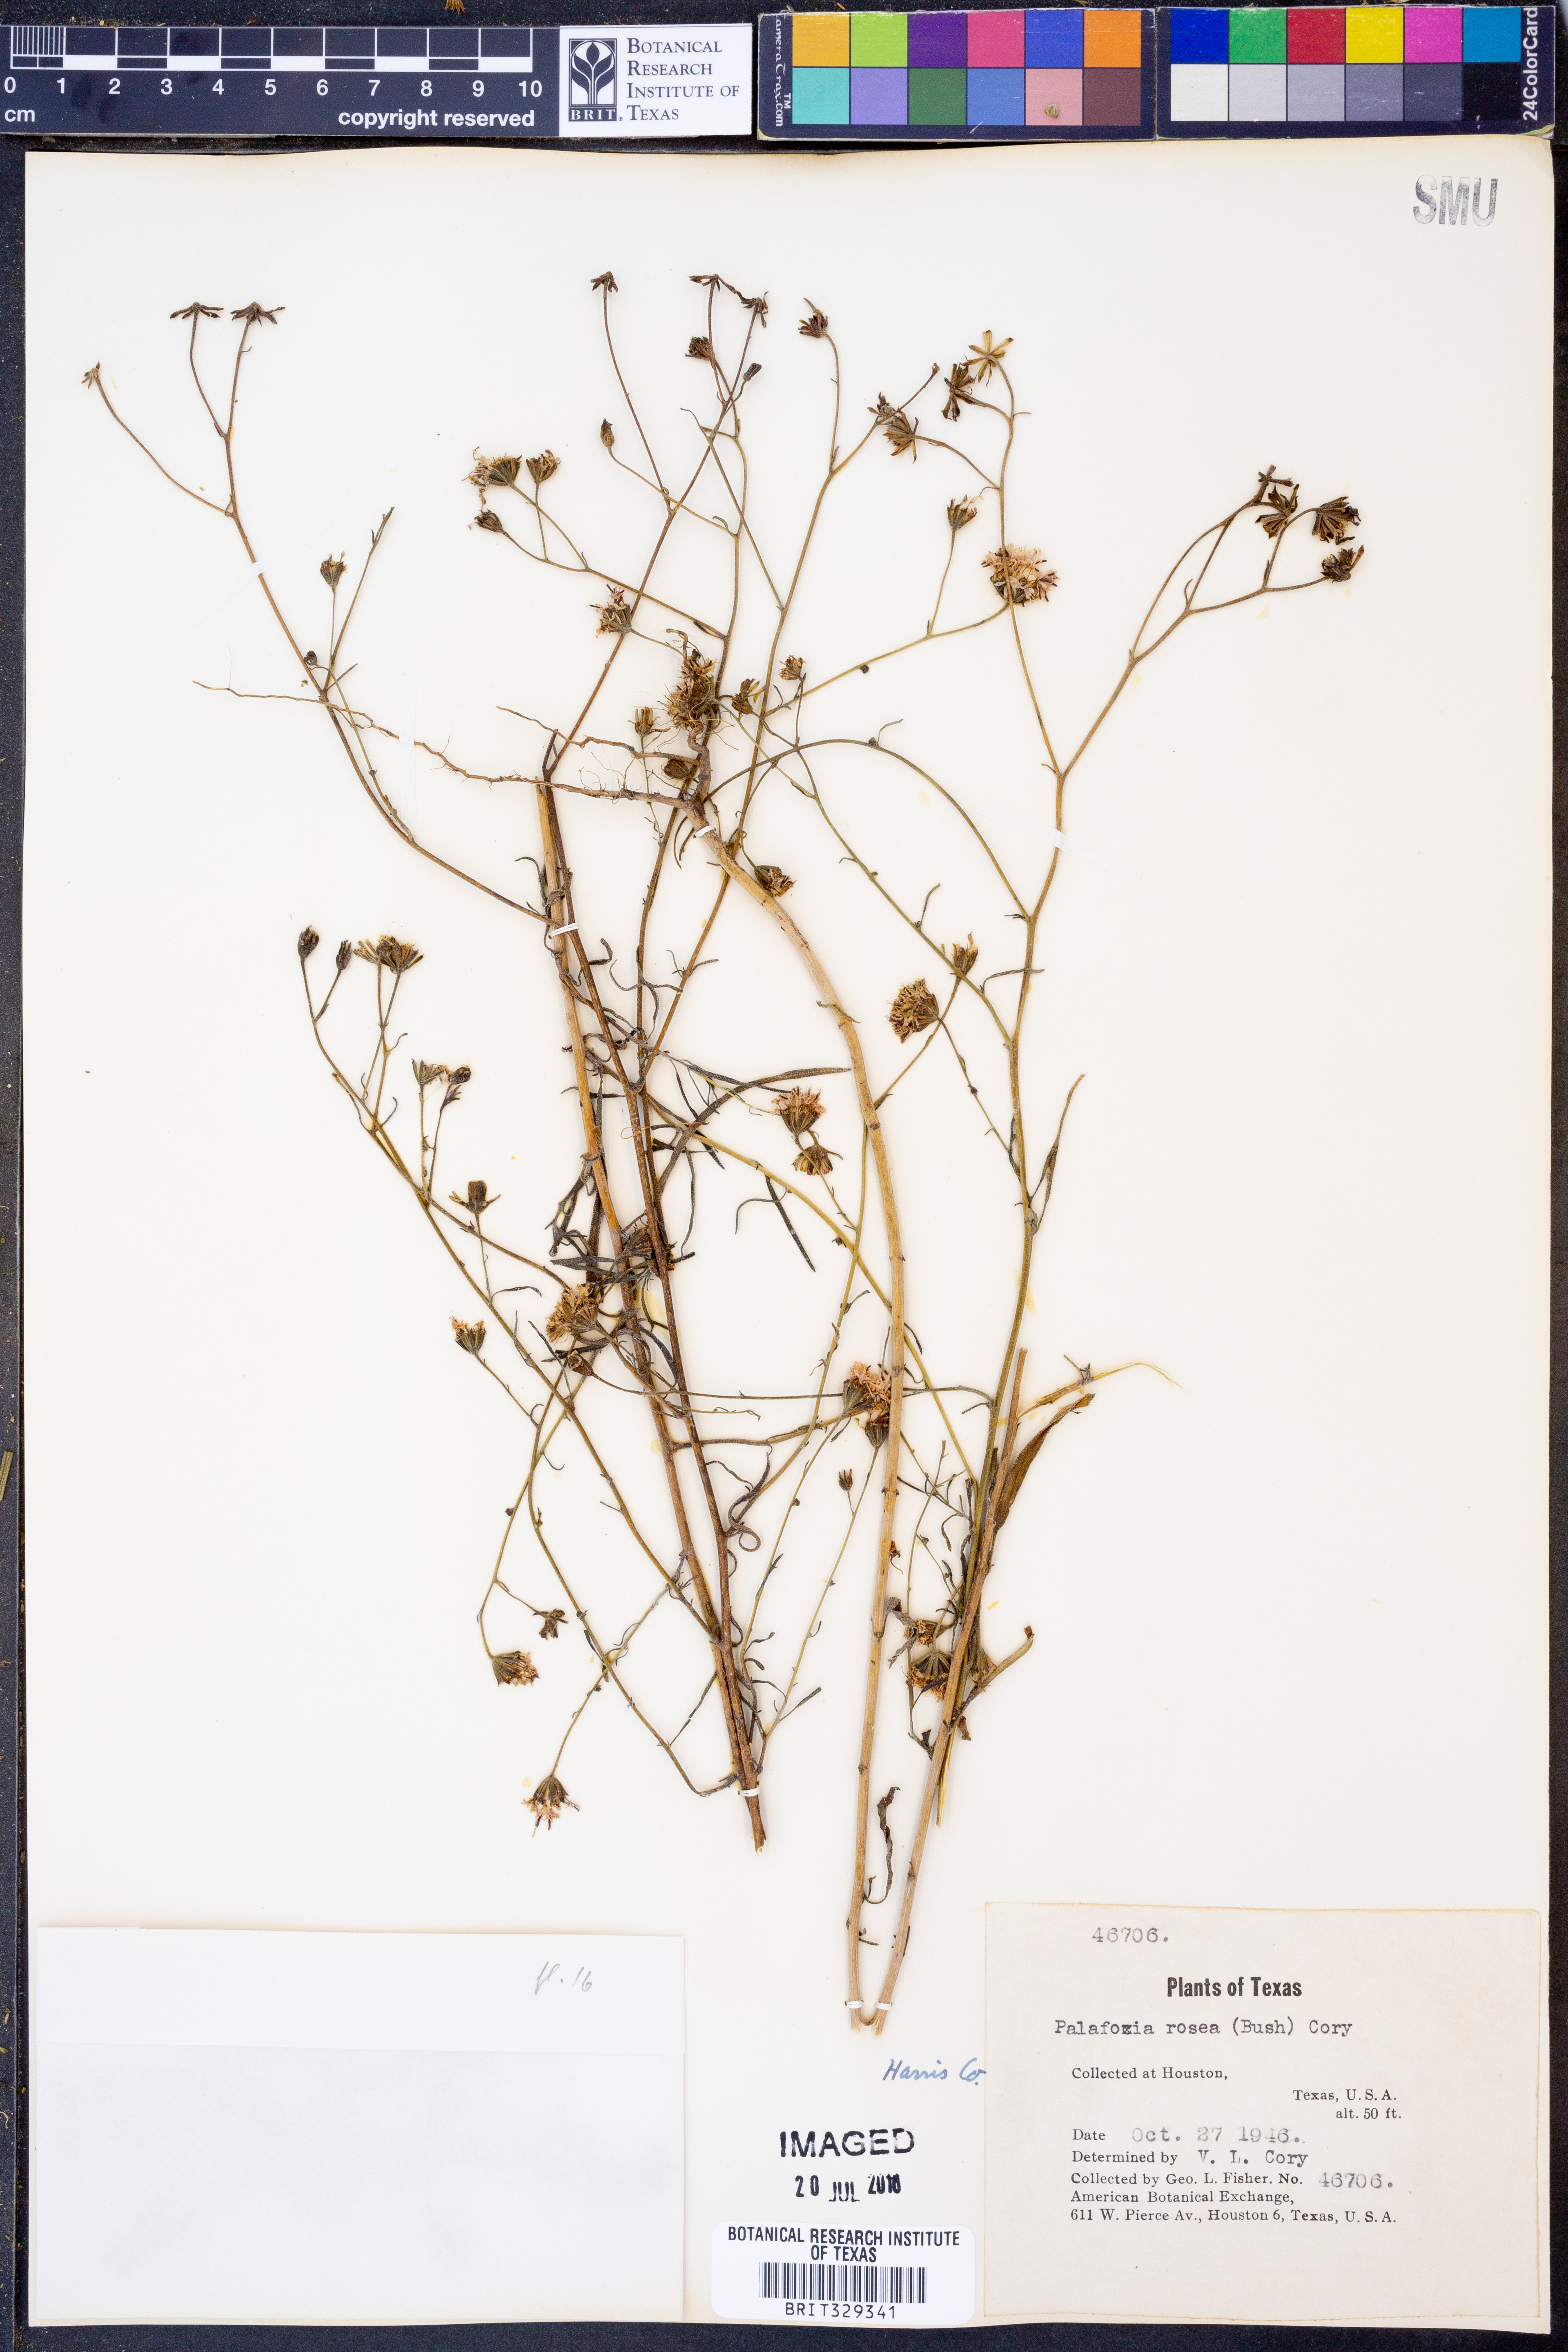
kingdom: Plantae
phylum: Tracheophyta
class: Magnoliopsida
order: Asterales
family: Asteraceae
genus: Palafoxia
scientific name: Palafoxia rosea
